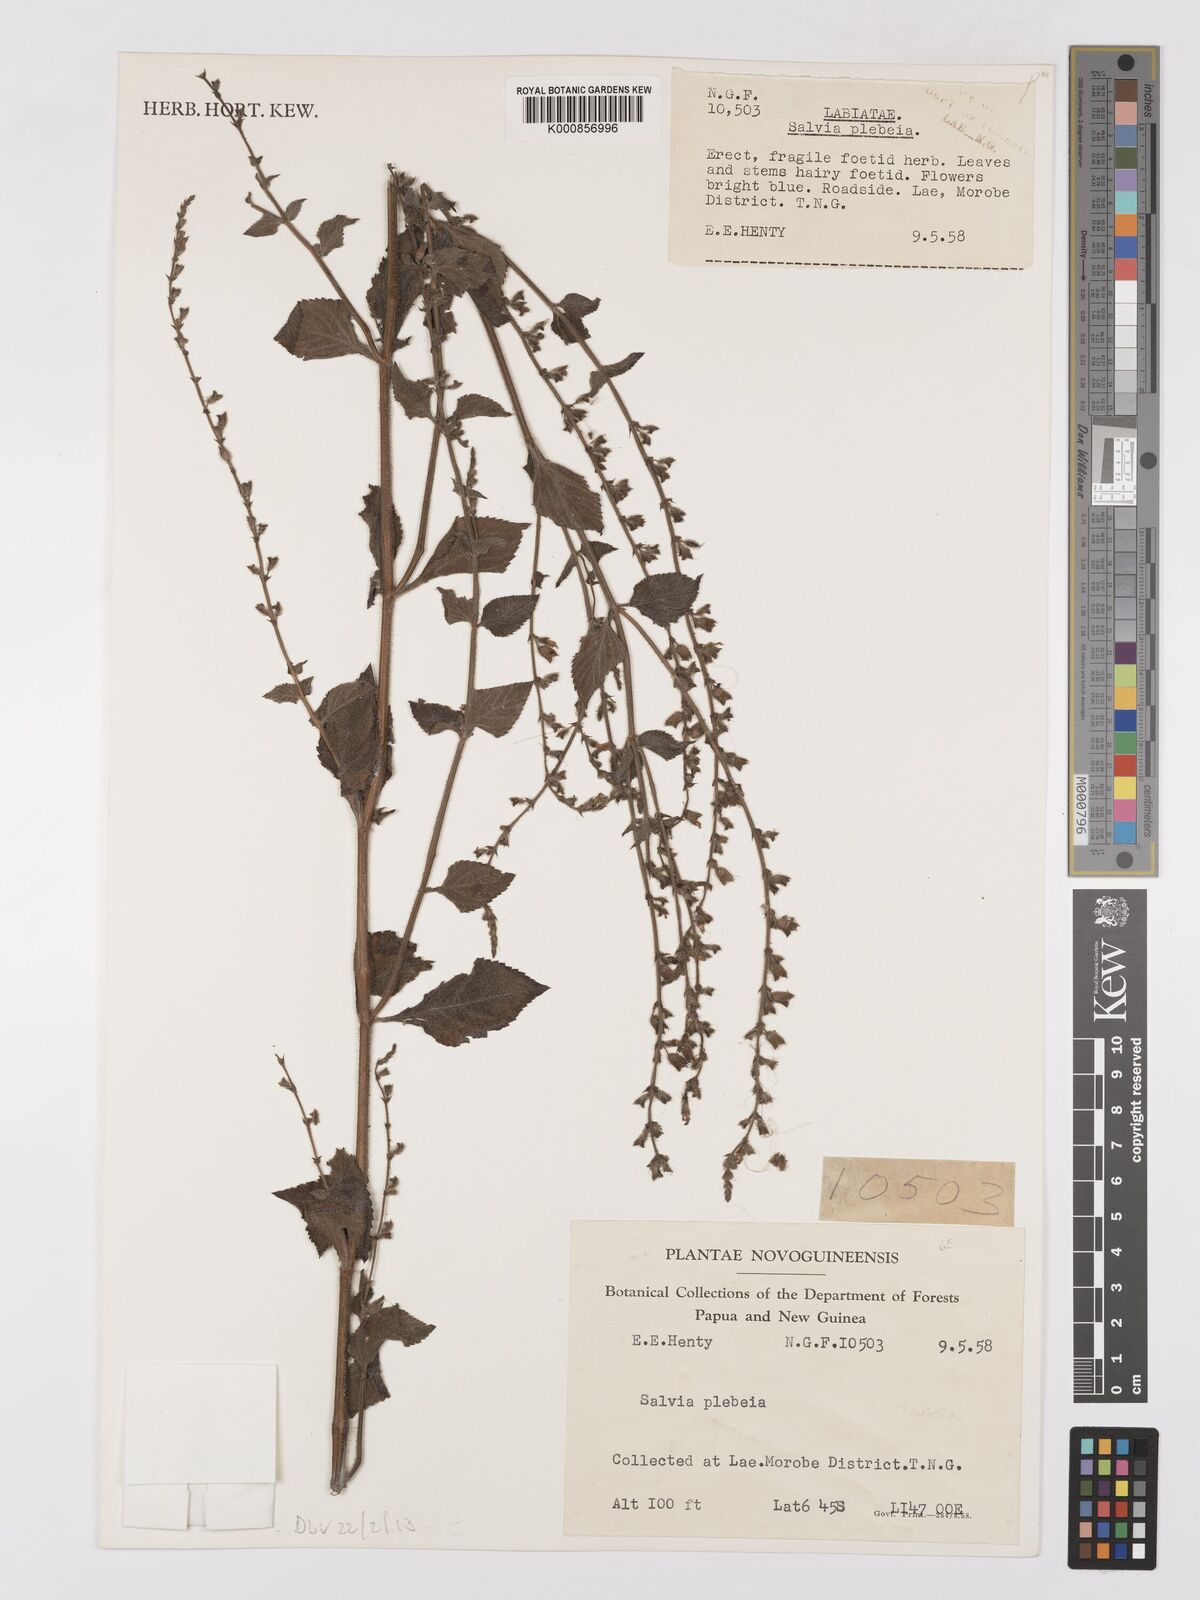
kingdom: Plantae
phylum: Tracheophyta
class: Magnoliopsida
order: Lamiales
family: Lamiaceae
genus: Salvia
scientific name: Salvia misella
